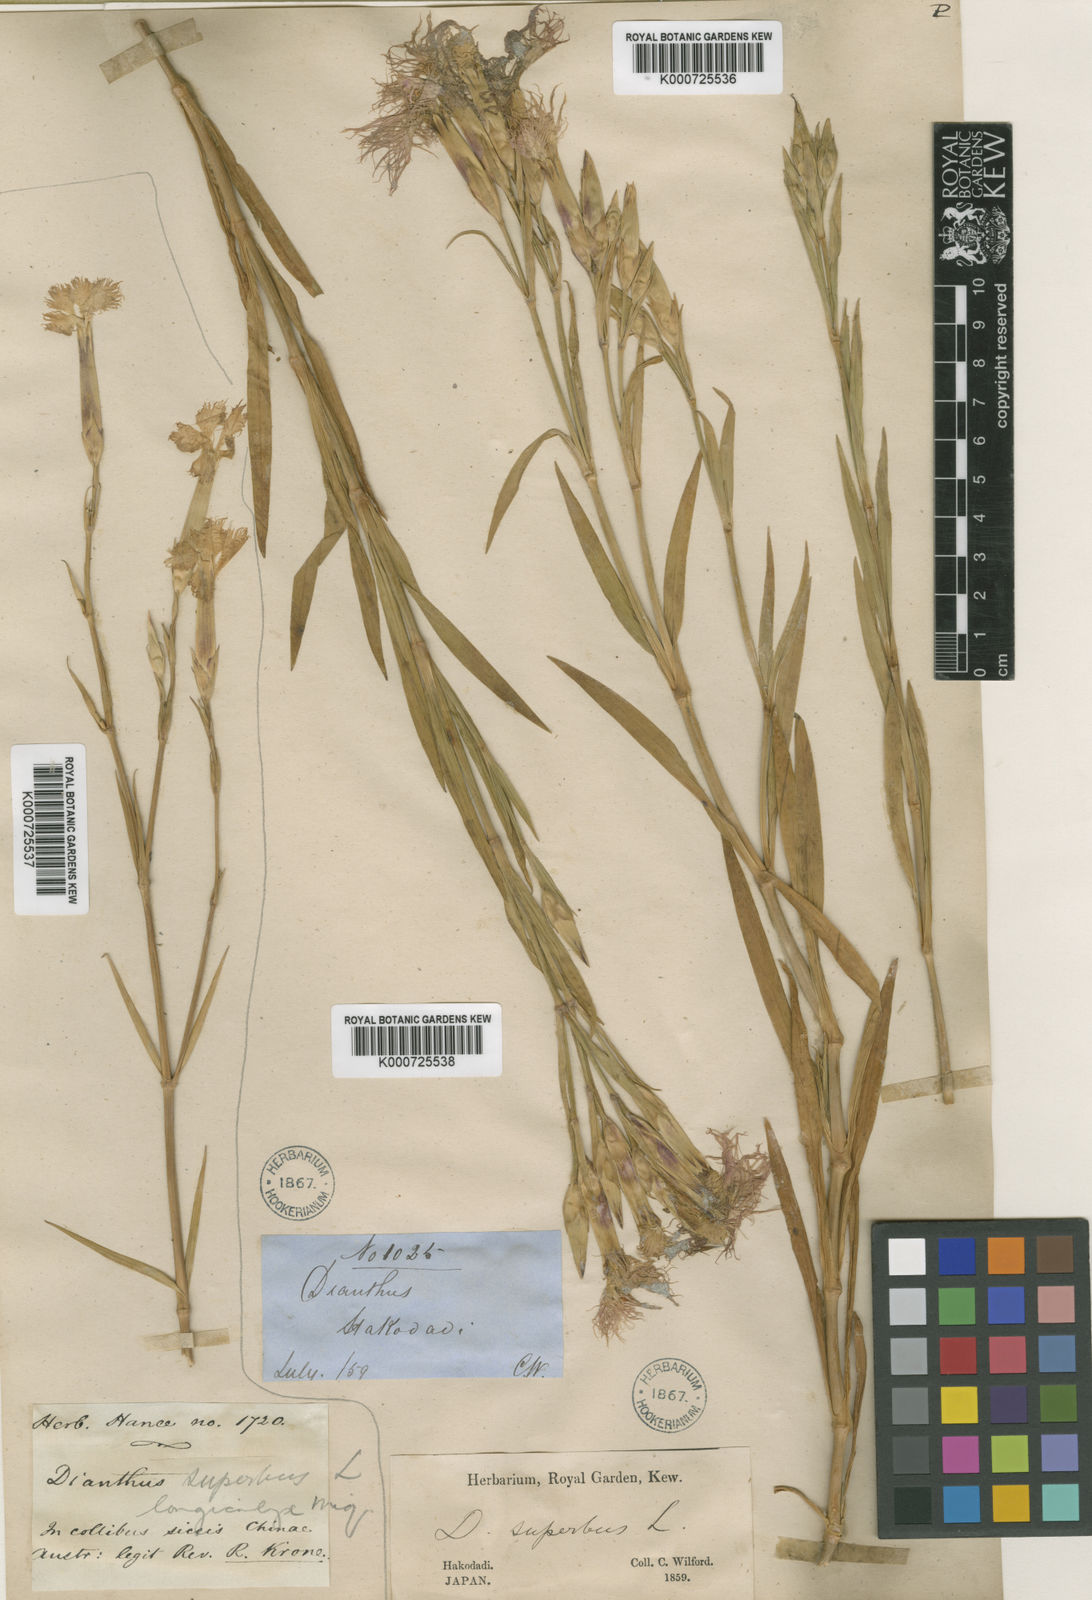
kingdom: Plantae
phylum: Tracheophyta
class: Magnoliopsida
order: Caryophyllales
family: Caryophyllaceae
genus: Dianthus
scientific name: Dianthus longicalyx
